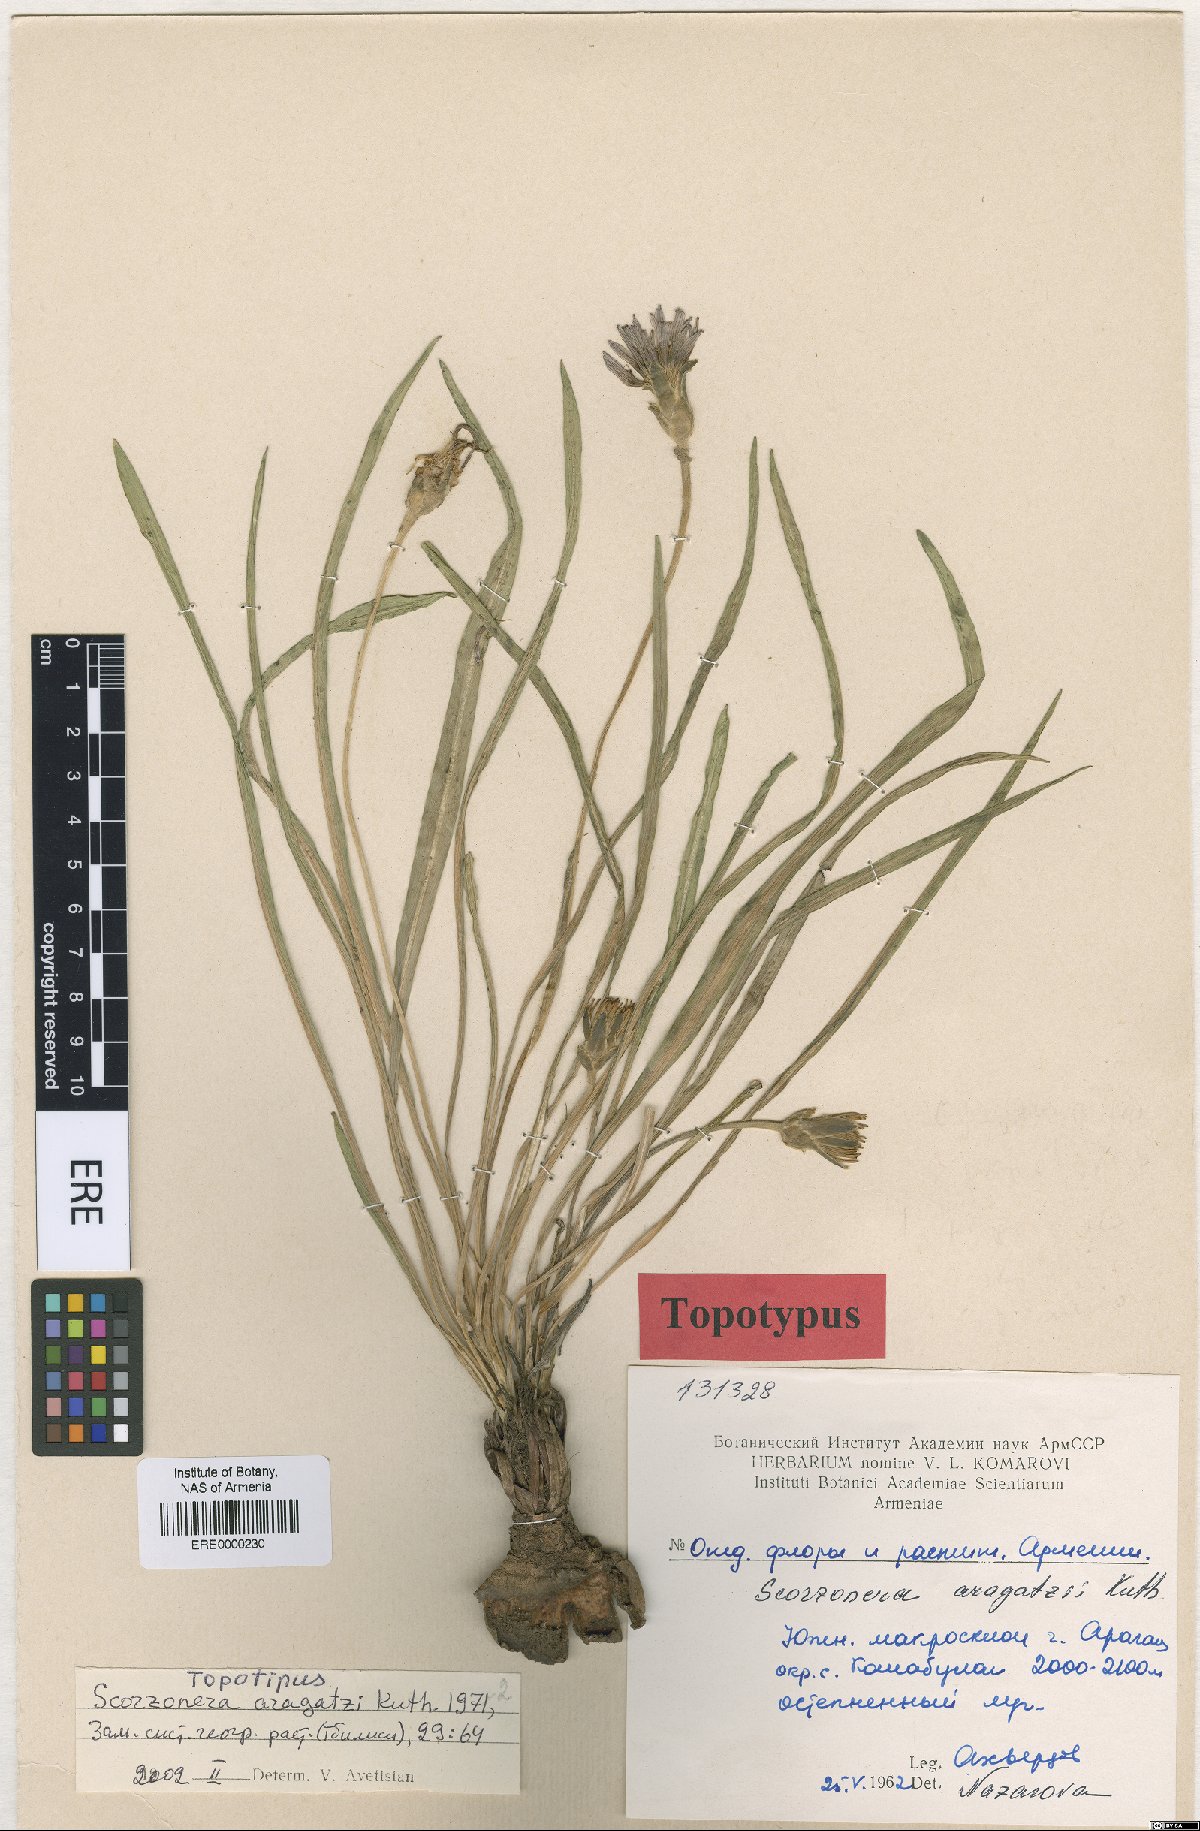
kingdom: Plantae
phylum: Tracheophyta
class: Magnoliopsida
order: Asterales
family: Asteraceae
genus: Pseudopodospermum
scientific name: Pseudopodospermum aragatzii
